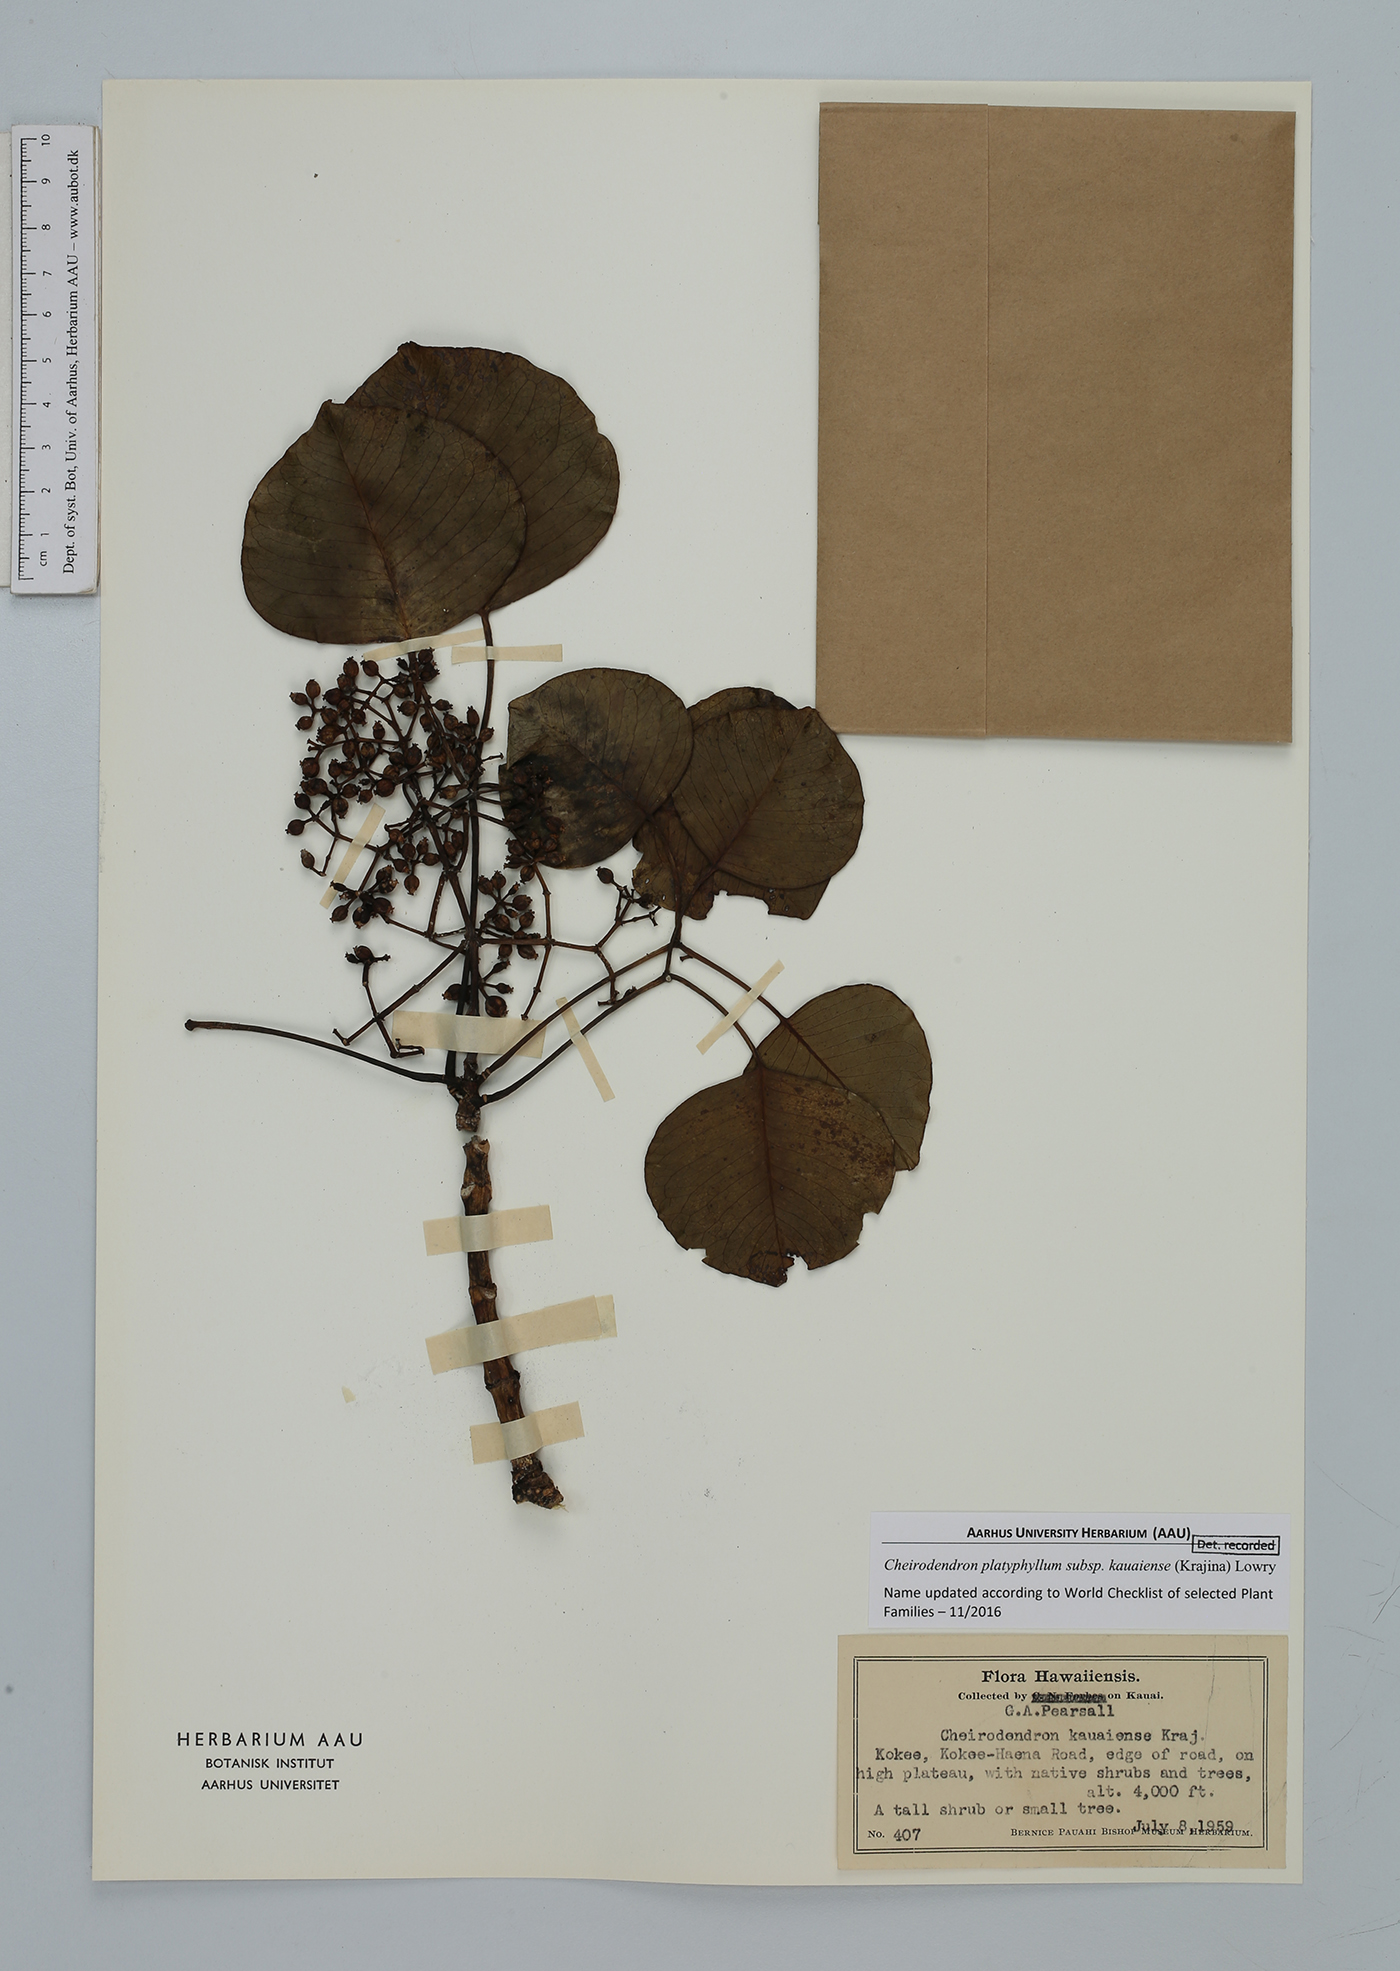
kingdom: Plantae
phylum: Tracheophyta
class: Magnoliopsida
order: Apiales
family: Araliaceae
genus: Cheirodendron
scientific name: Cheirodendron platyphyllum
